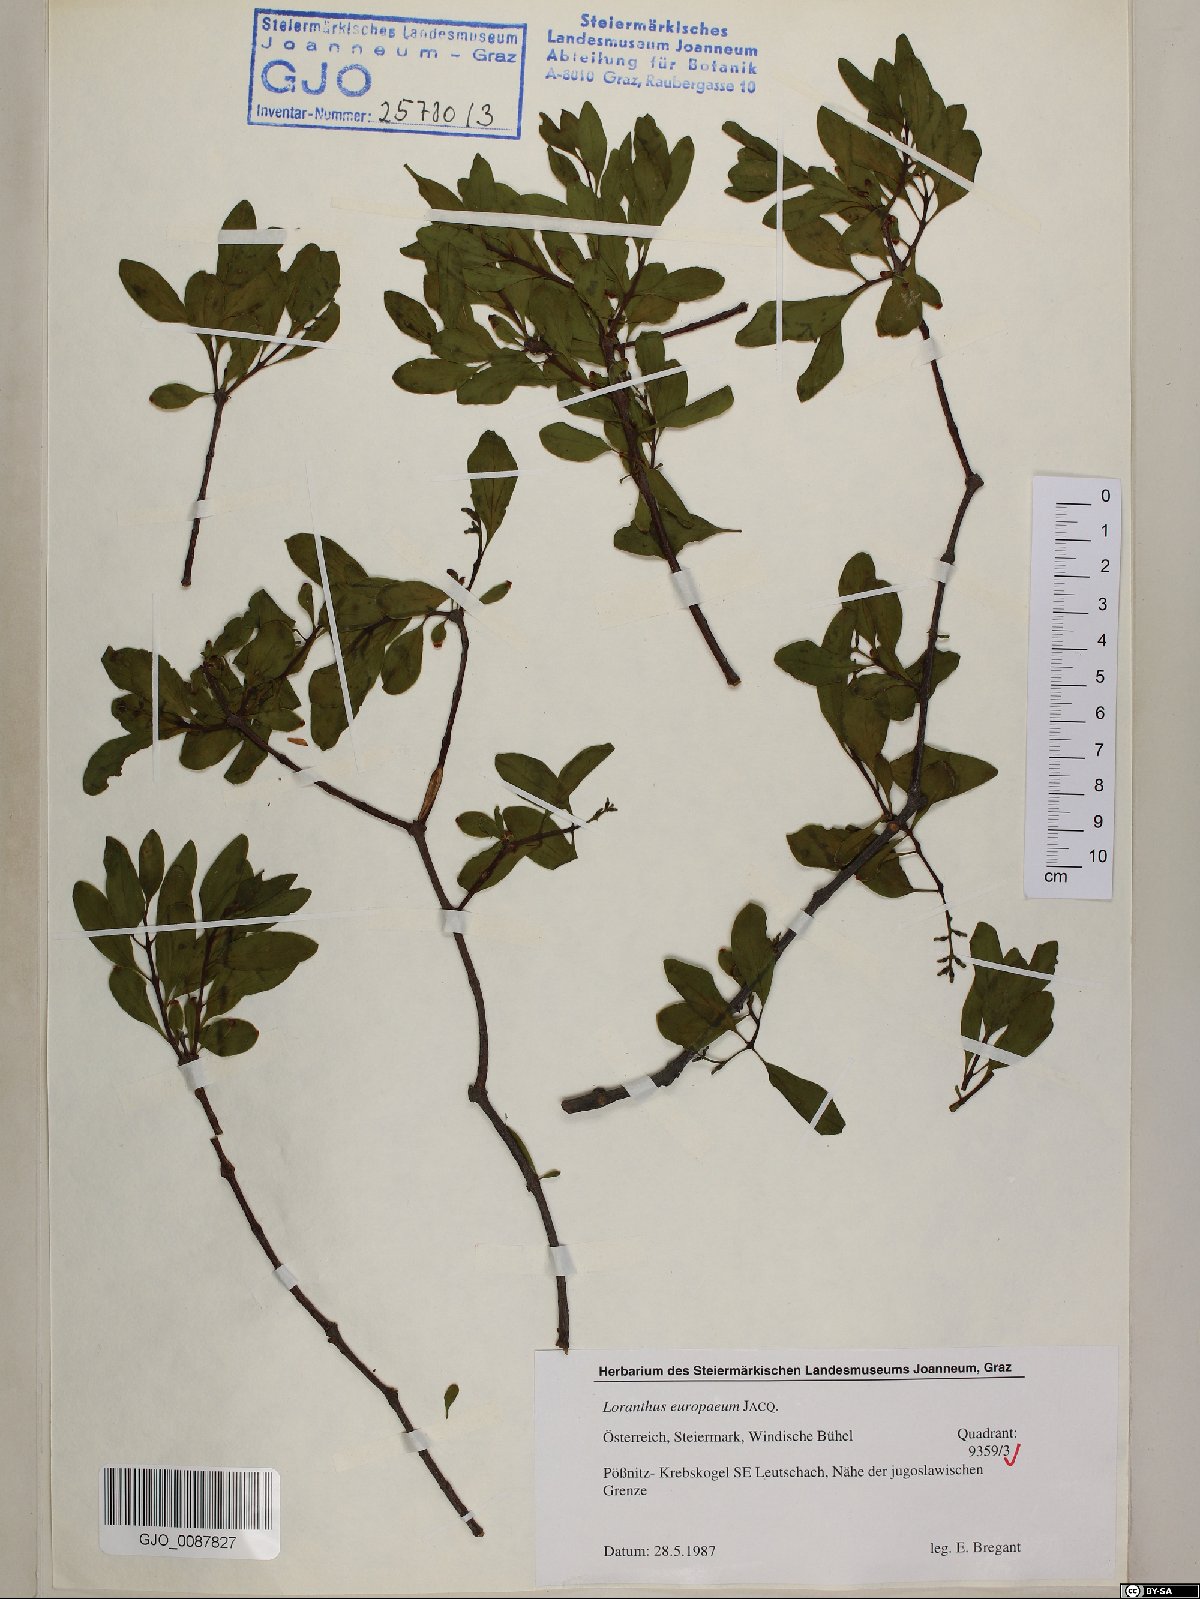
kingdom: Plantae
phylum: Tracheophyta
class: Magnoliopsida
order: Santalales
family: Loranthaceae
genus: Loranthus
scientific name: Loranthus europaeus
